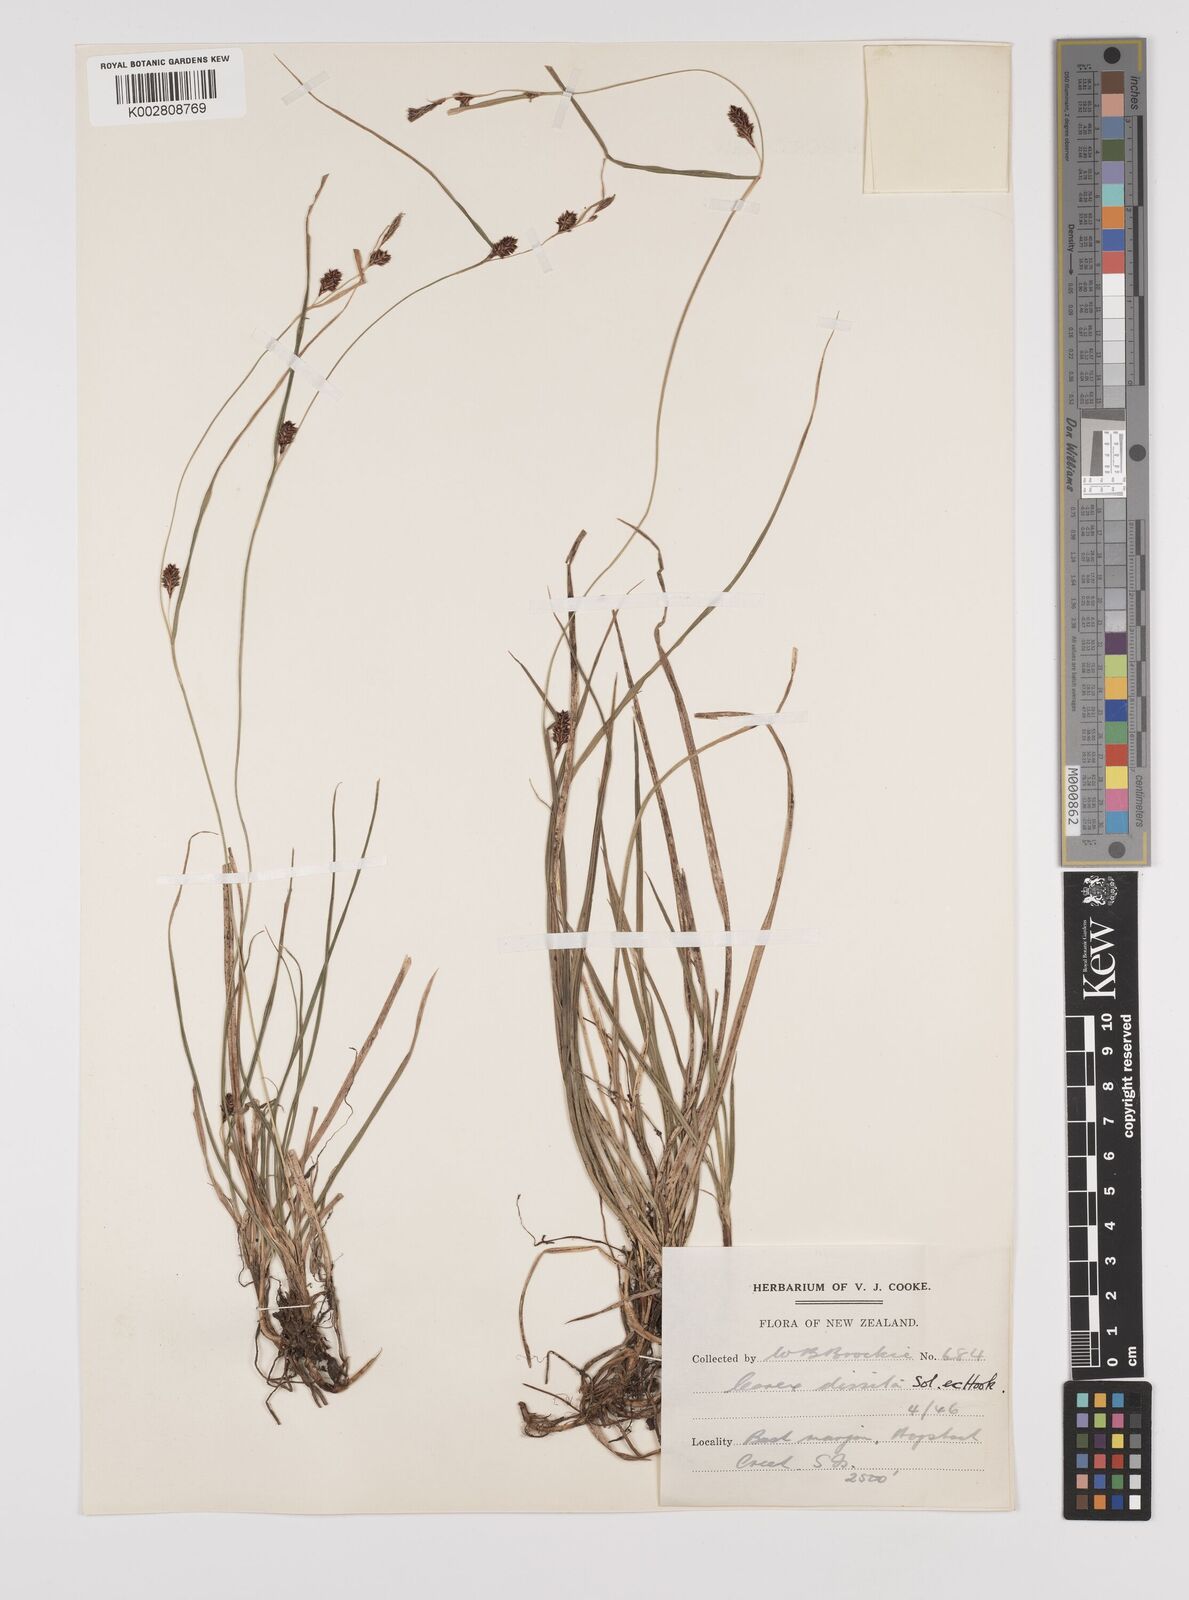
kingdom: Plantae
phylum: Tracheophyta
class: Liliopsida
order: Poales
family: Cyperaceae
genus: Carex
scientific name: Carex dissita
